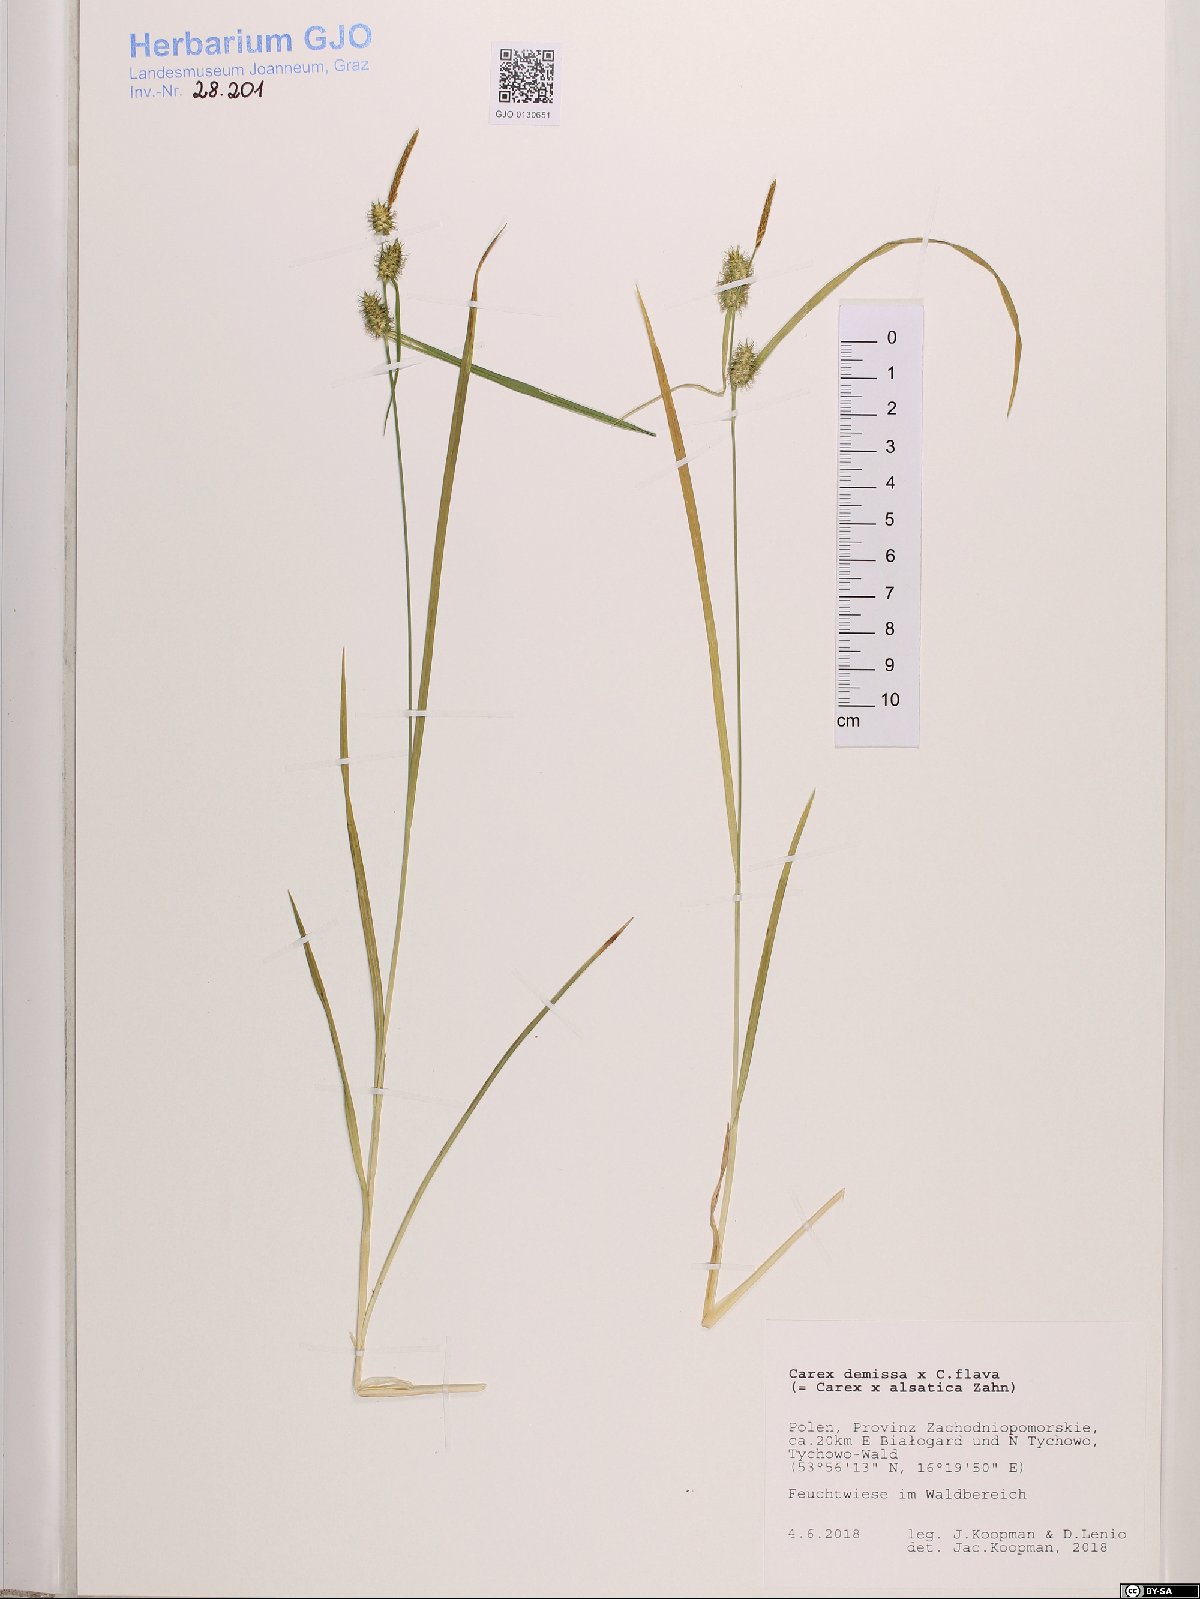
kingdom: Plantae
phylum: Tracheophyta
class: Liliopsida
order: Poales
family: Cyperaceae
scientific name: Cyperaceae
